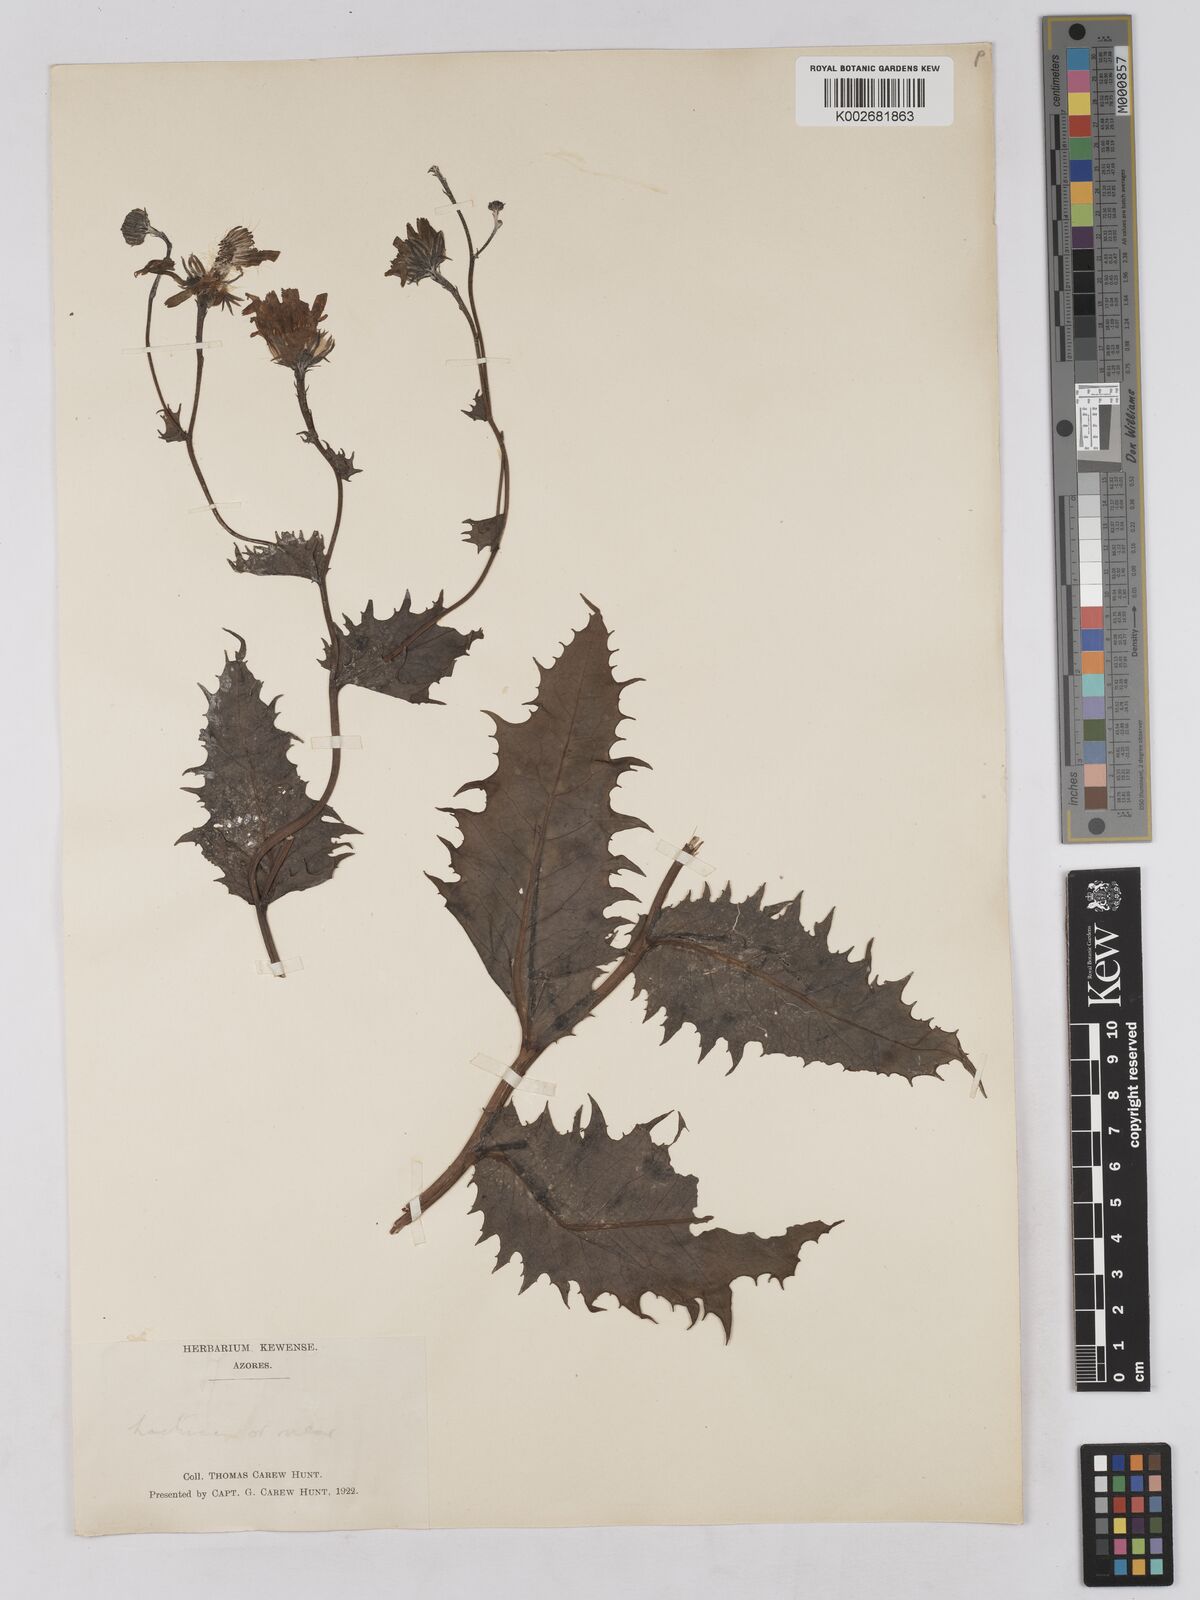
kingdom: Plantae
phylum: Tracheophyta
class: Magnoliopsida
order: Asterales
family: Asteraceae
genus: Tolpis
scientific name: Tolpis nobilis
